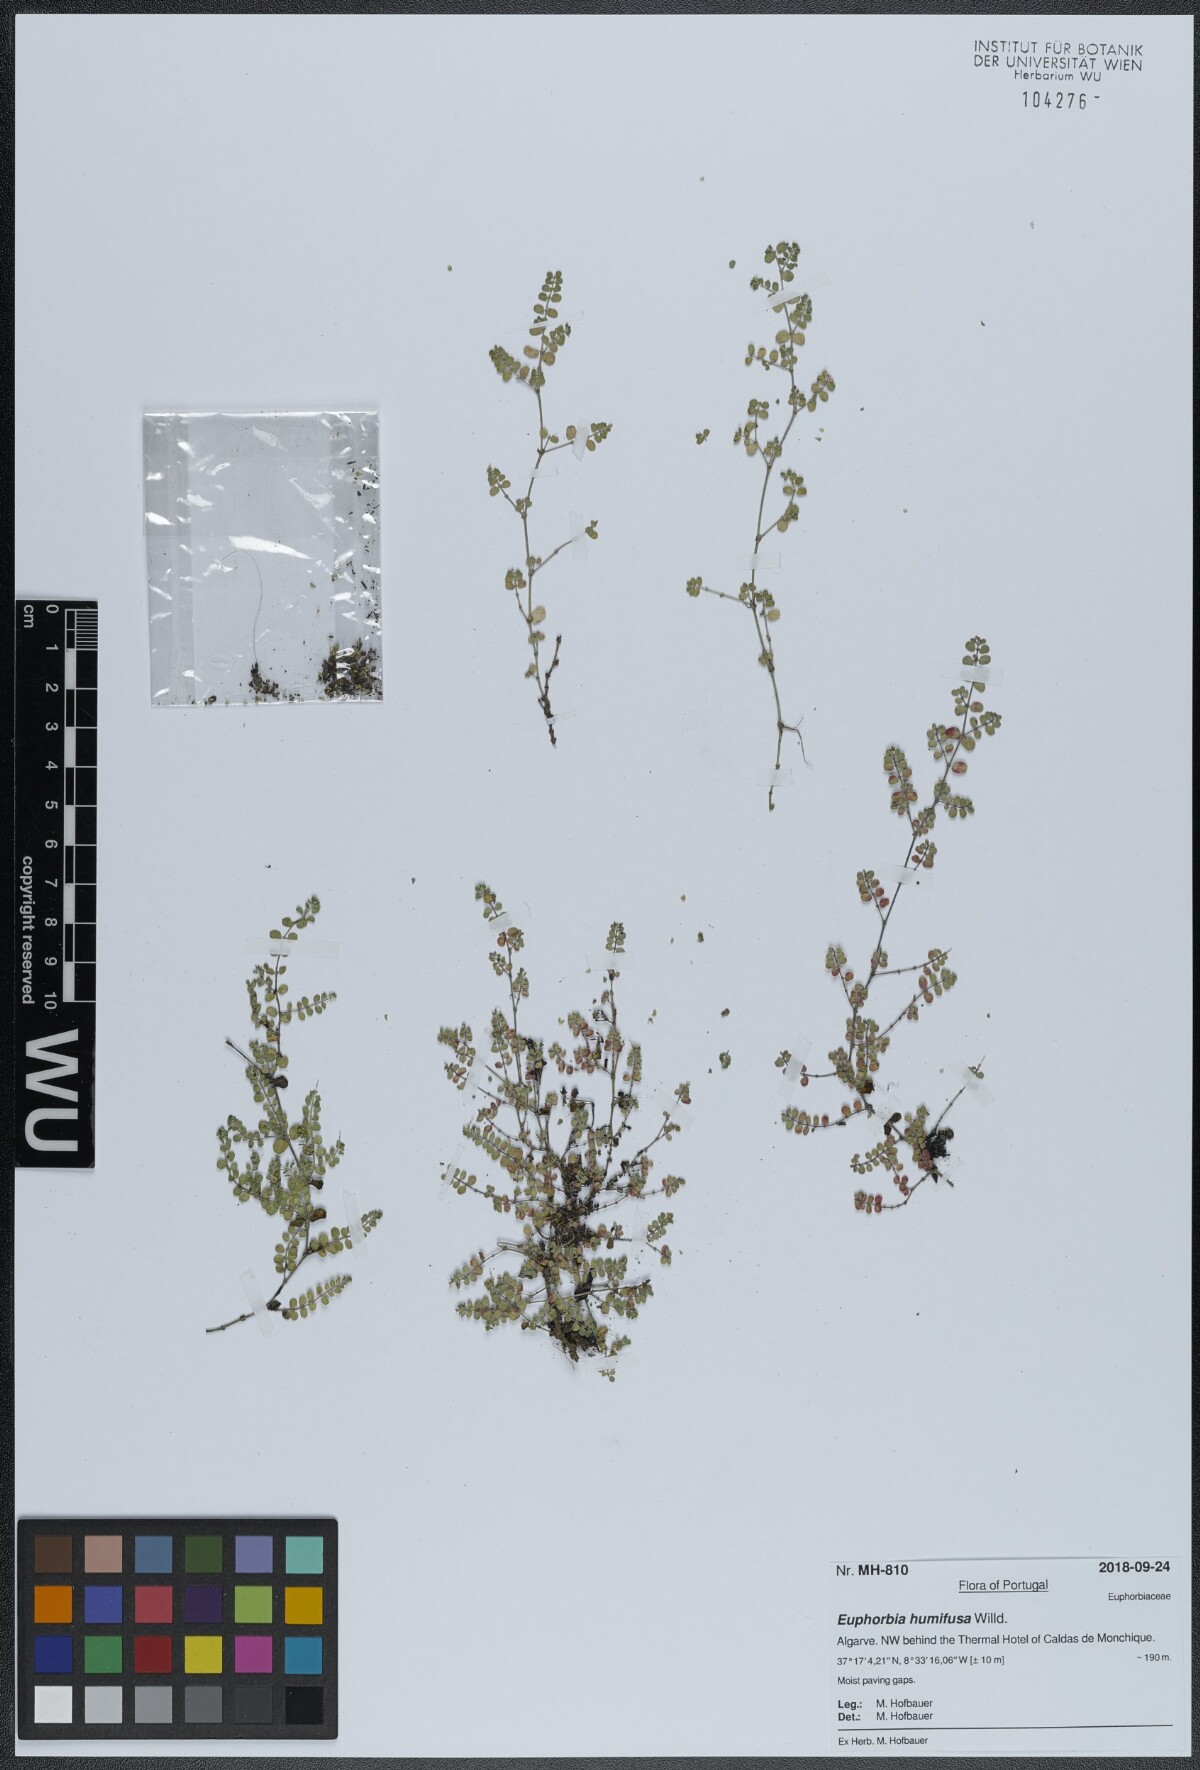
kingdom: Plantae
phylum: Tracheophyta
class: Magnoliopsida
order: Malpighiales
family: Euphorbiaceae
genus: Euphorbia
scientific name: Euphorbia humifusa
